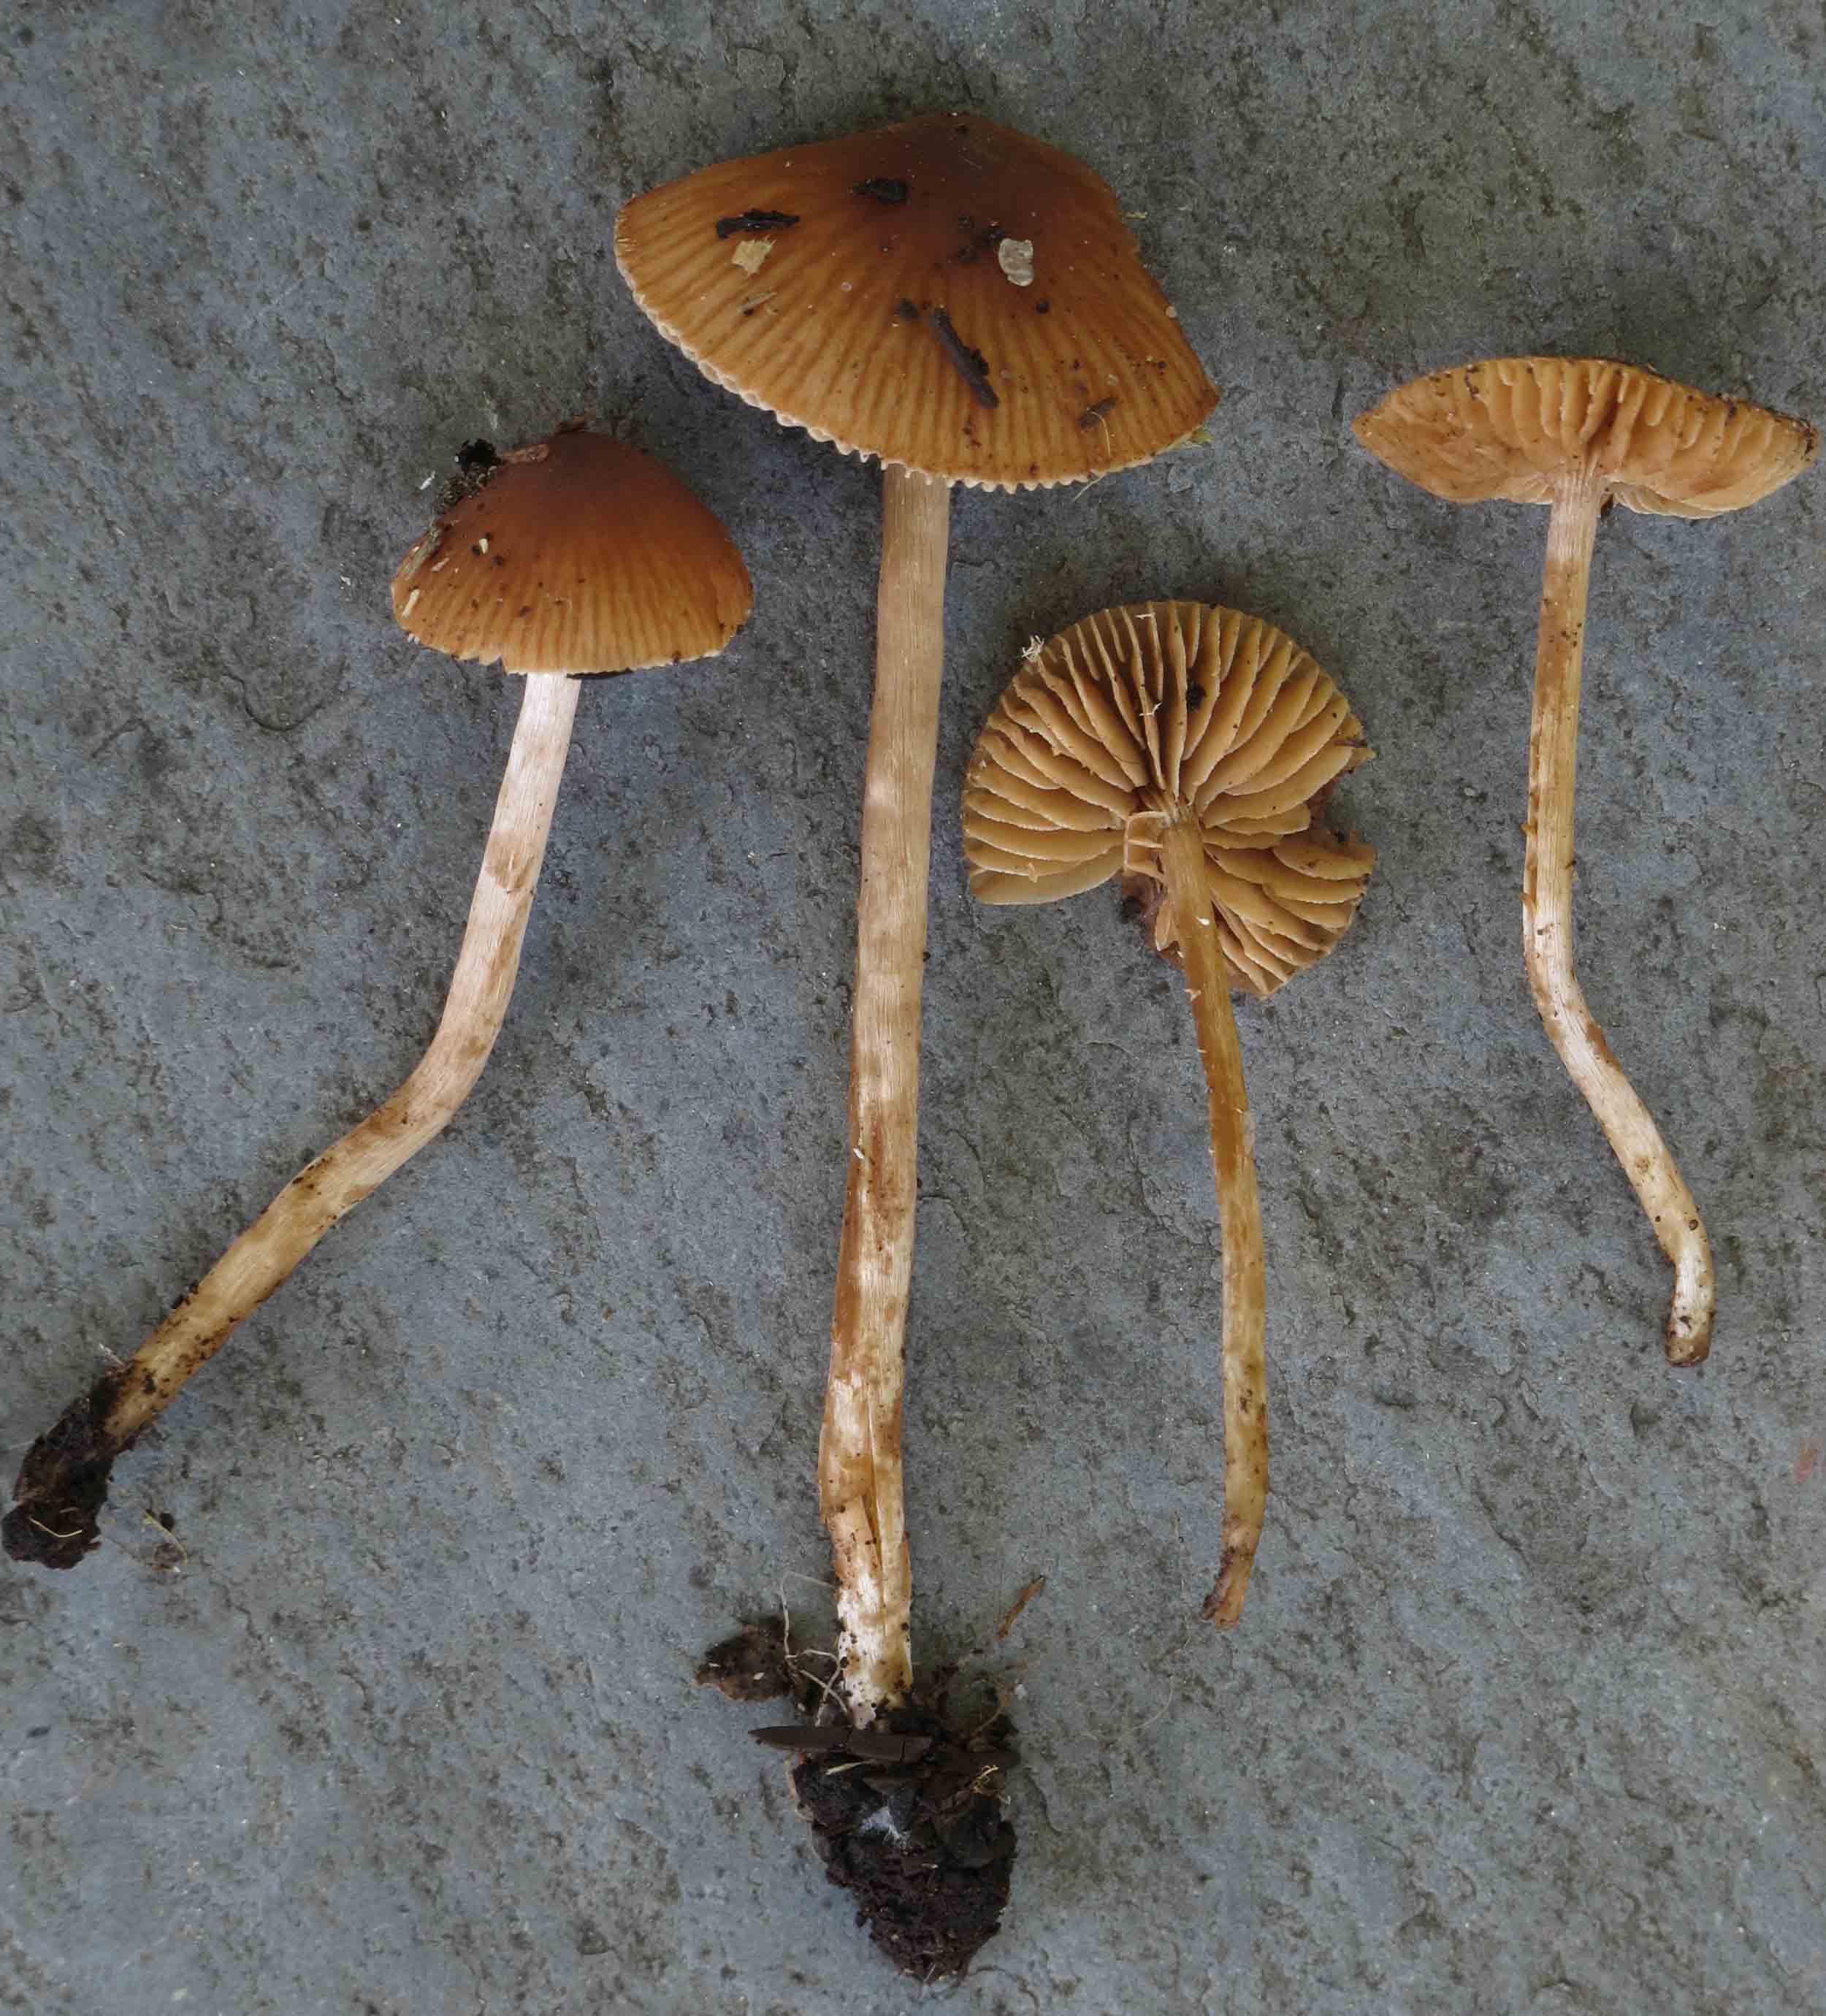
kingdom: Fungi
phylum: Basidiomycota
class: Agaricomycetes
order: Agaricales
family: Hymenogastraceae
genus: Naucoria
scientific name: Naucoria bohemica
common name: birke-knaphat
